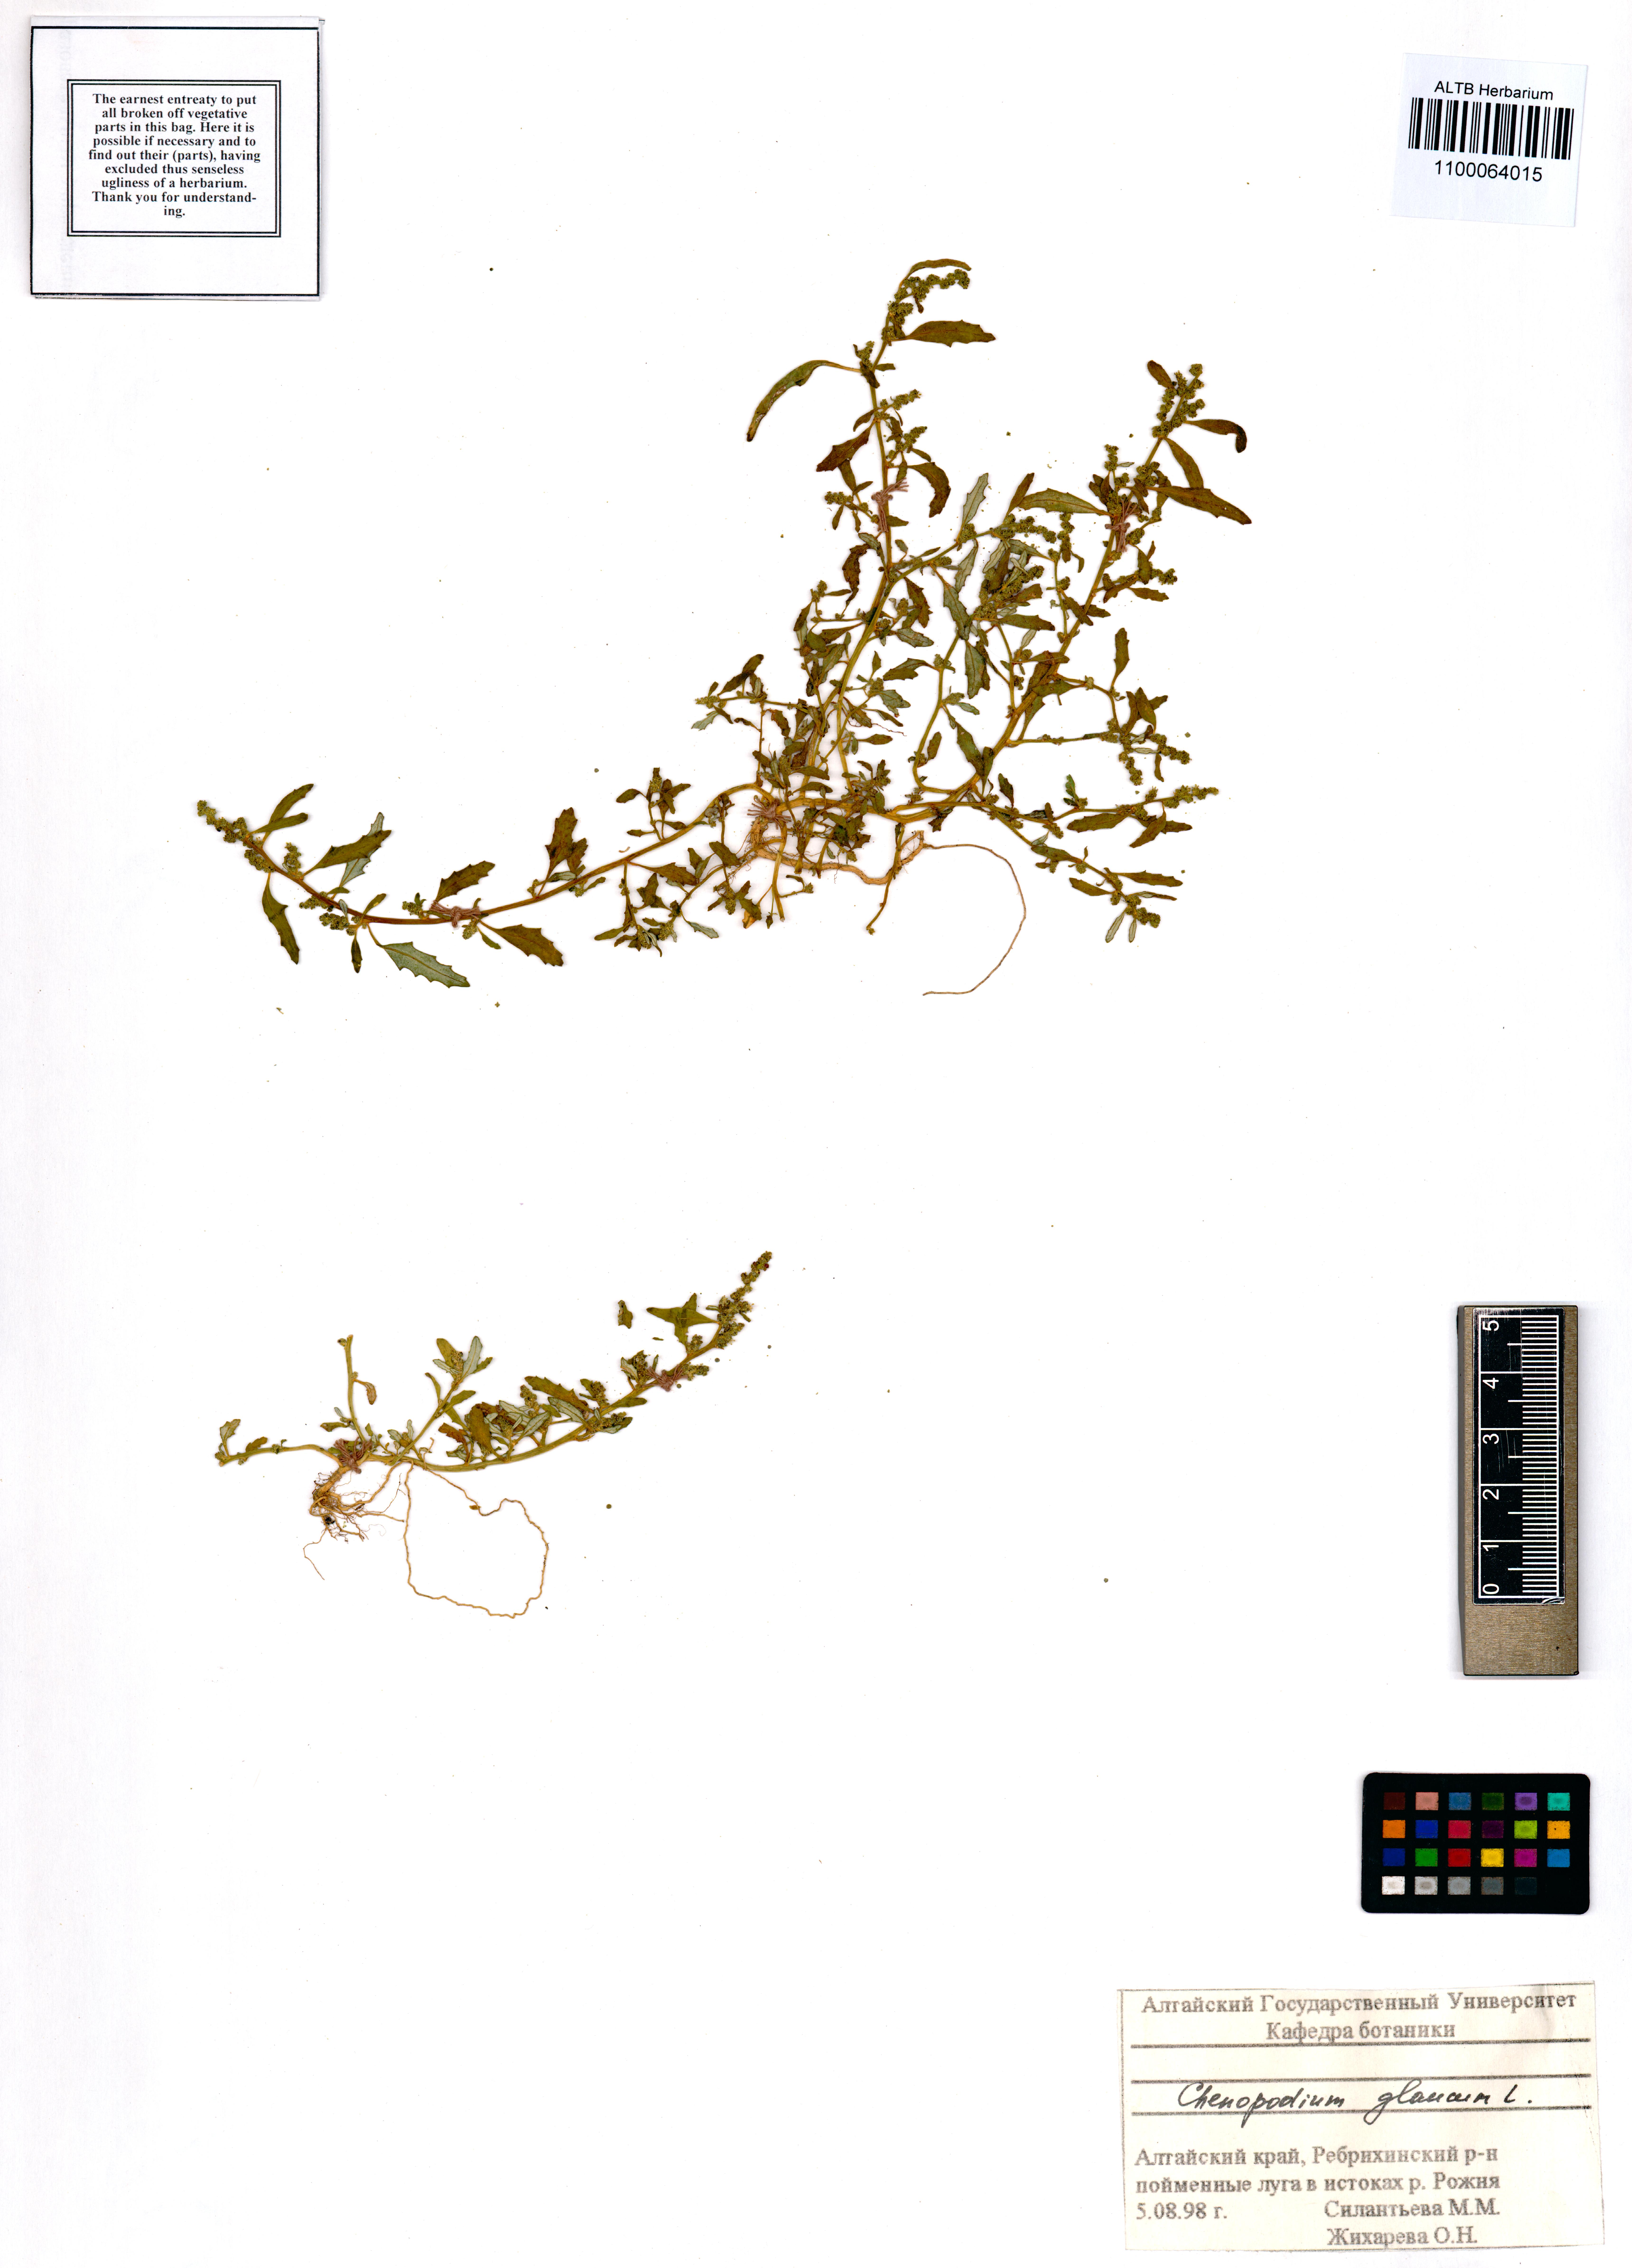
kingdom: Plantae
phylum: Tracheophyta
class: Magnoliopsida
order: Caryophyllales
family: Amaranthaceae
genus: Oxybasis
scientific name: Oxybasis glauca
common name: Glaucous goosefoot
